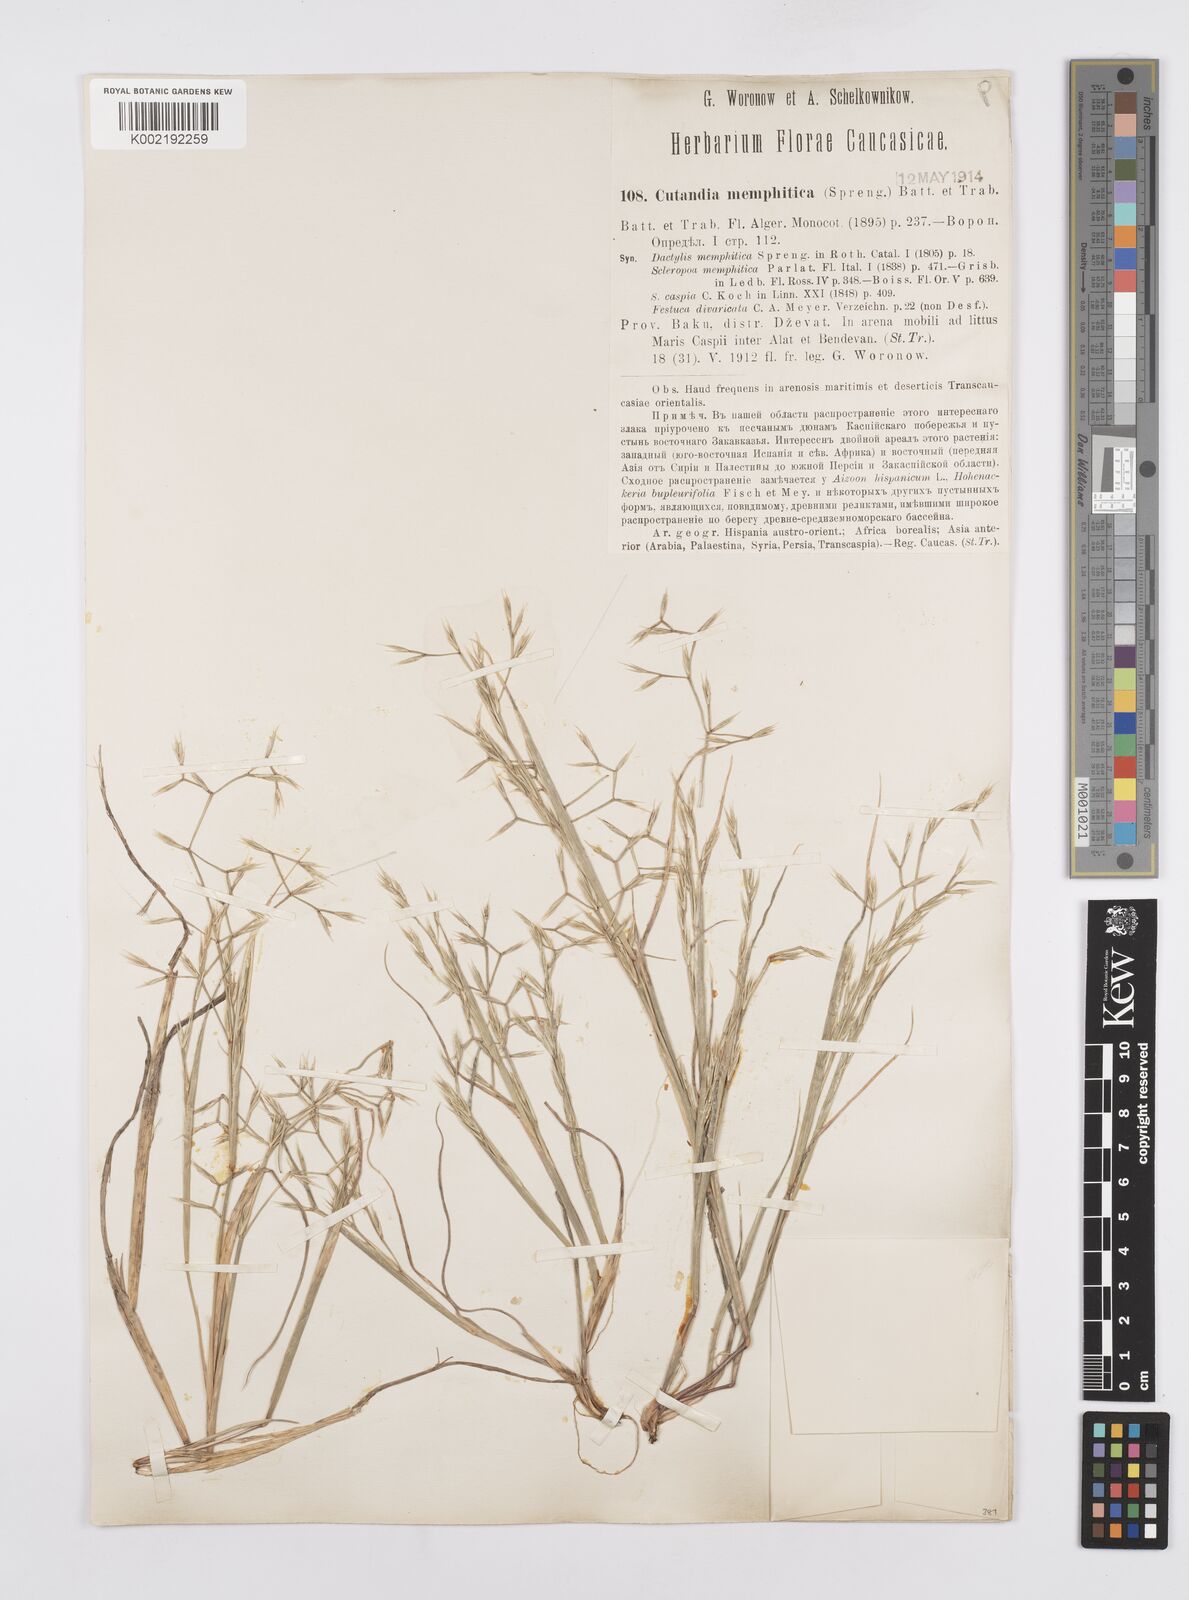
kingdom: Plantae
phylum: Tracheophyta
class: Liliopsida
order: Poales
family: Poaceae
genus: Cutandia
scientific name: Cutandia memphitica
